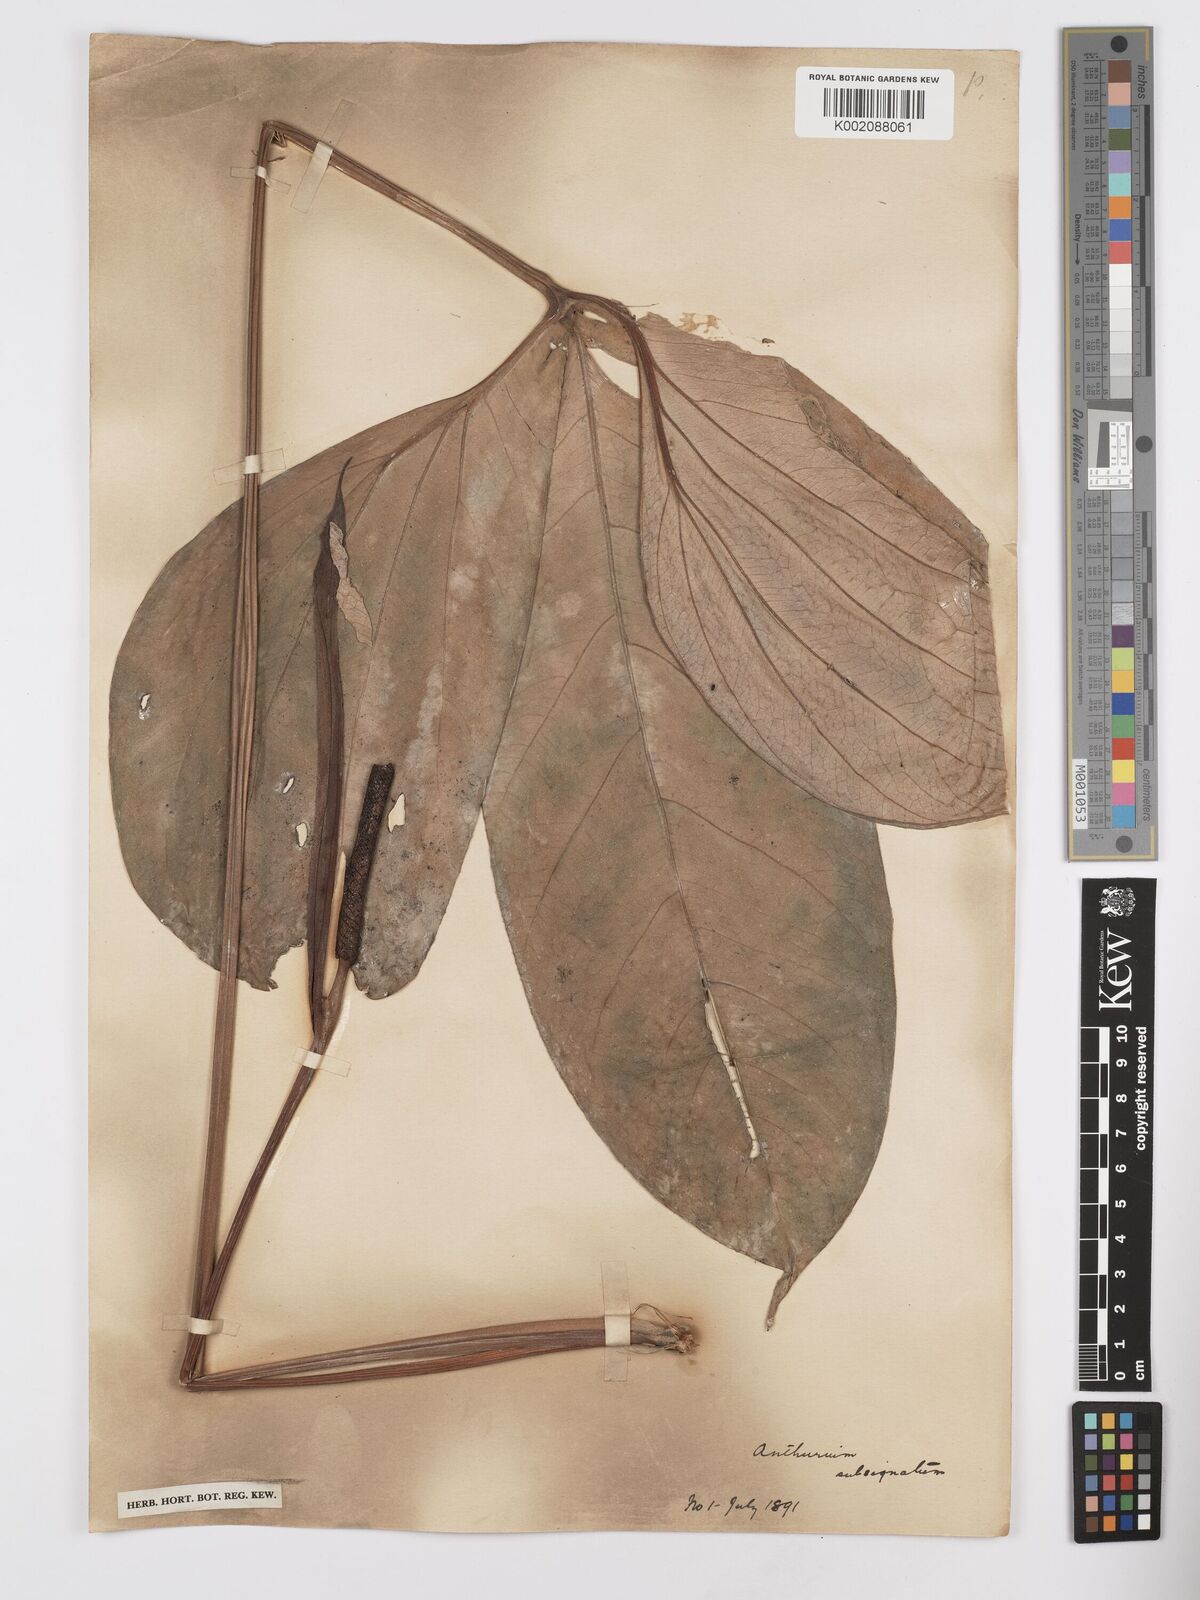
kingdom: Plantae
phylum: Tracheophyta
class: Liliopsida
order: Alismatales
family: Araceae
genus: Anthurium
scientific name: Anthurium subsignatum
